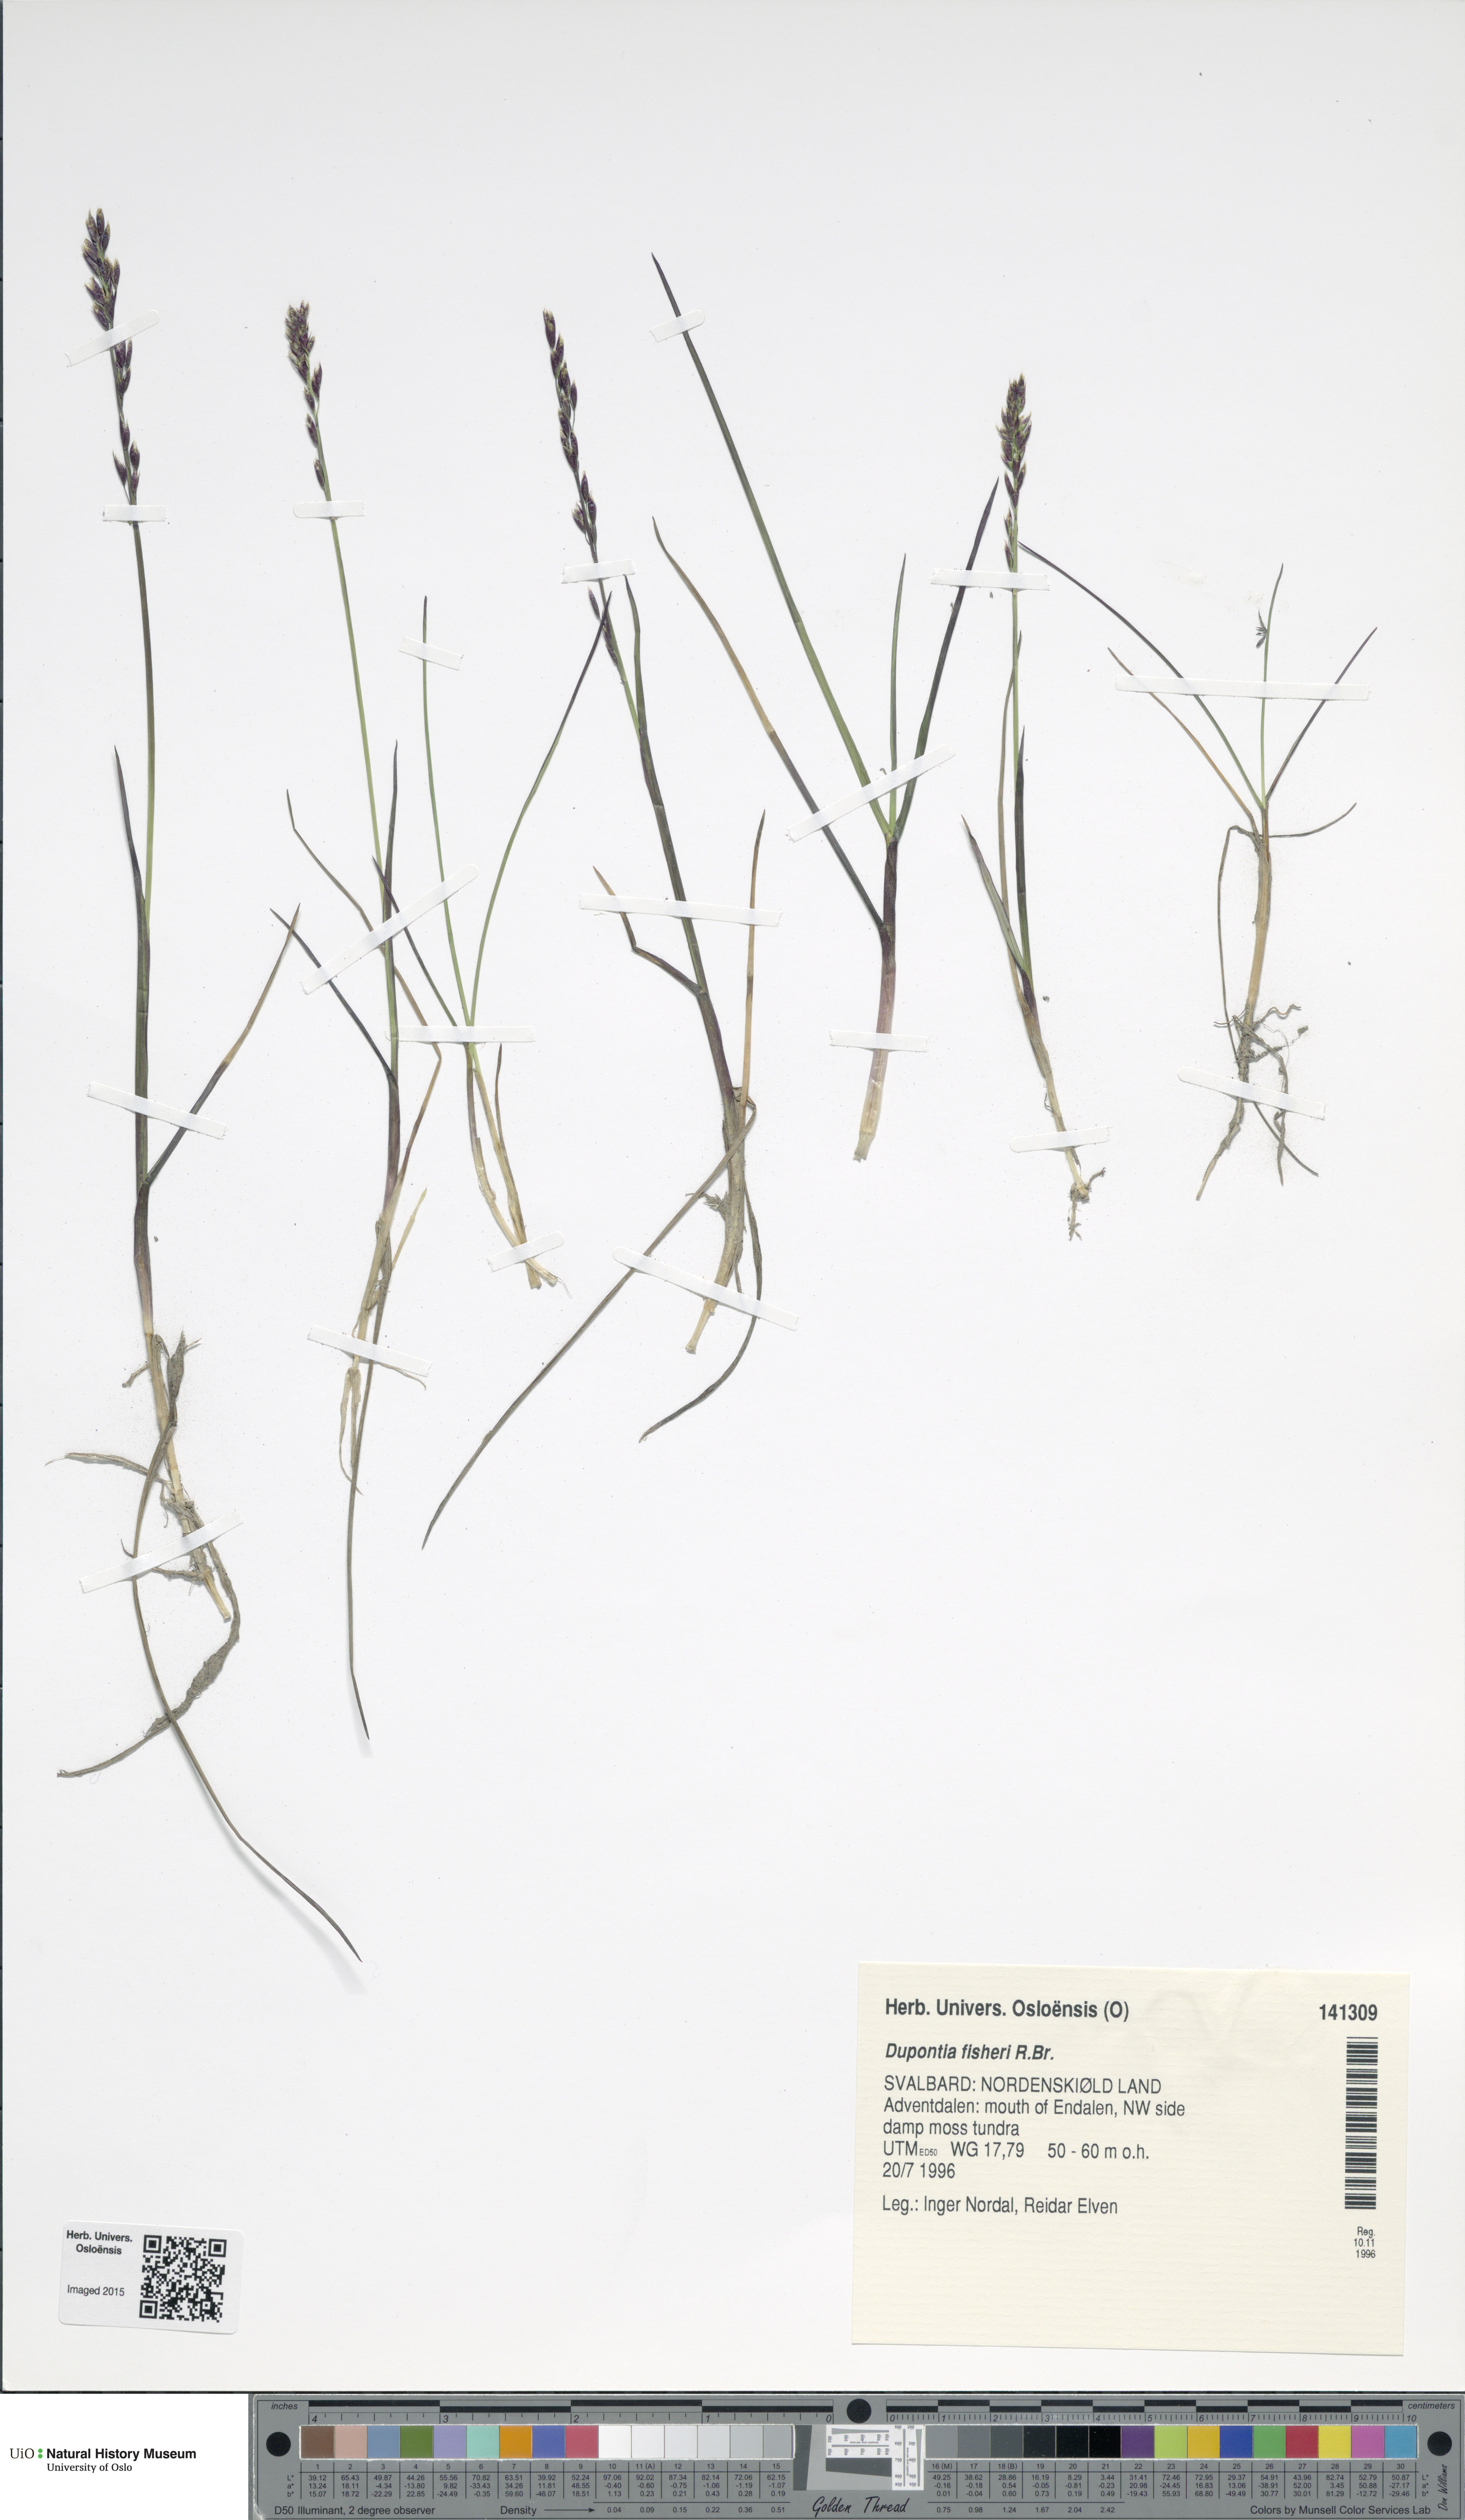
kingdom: Plantae
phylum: Tracheophyta
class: Liliopsida
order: Poales
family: Poaceae
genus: Dupontia
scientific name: Dupontia fisheri
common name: Tundra grass
